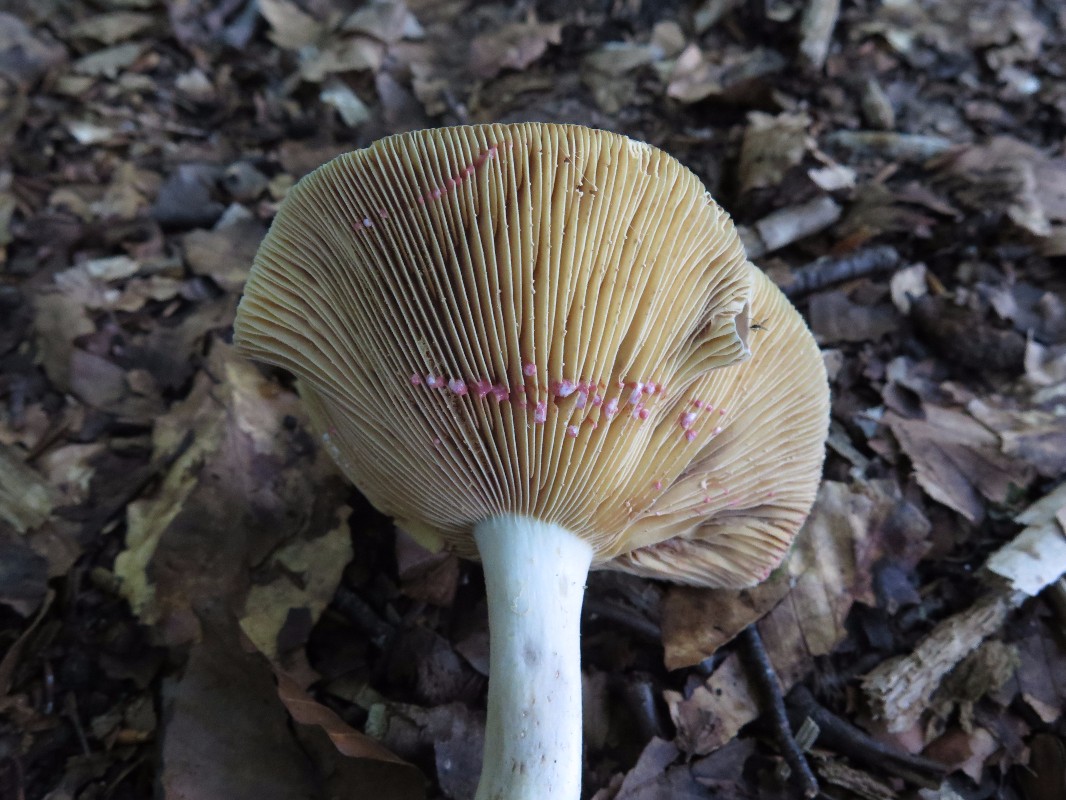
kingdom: Fungi
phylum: Basidiomycota
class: Agaricomycetes
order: Russulales
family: Russulaceae
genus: Lactarius
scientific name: Lactarius acris
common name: rosamælket mælkehat
